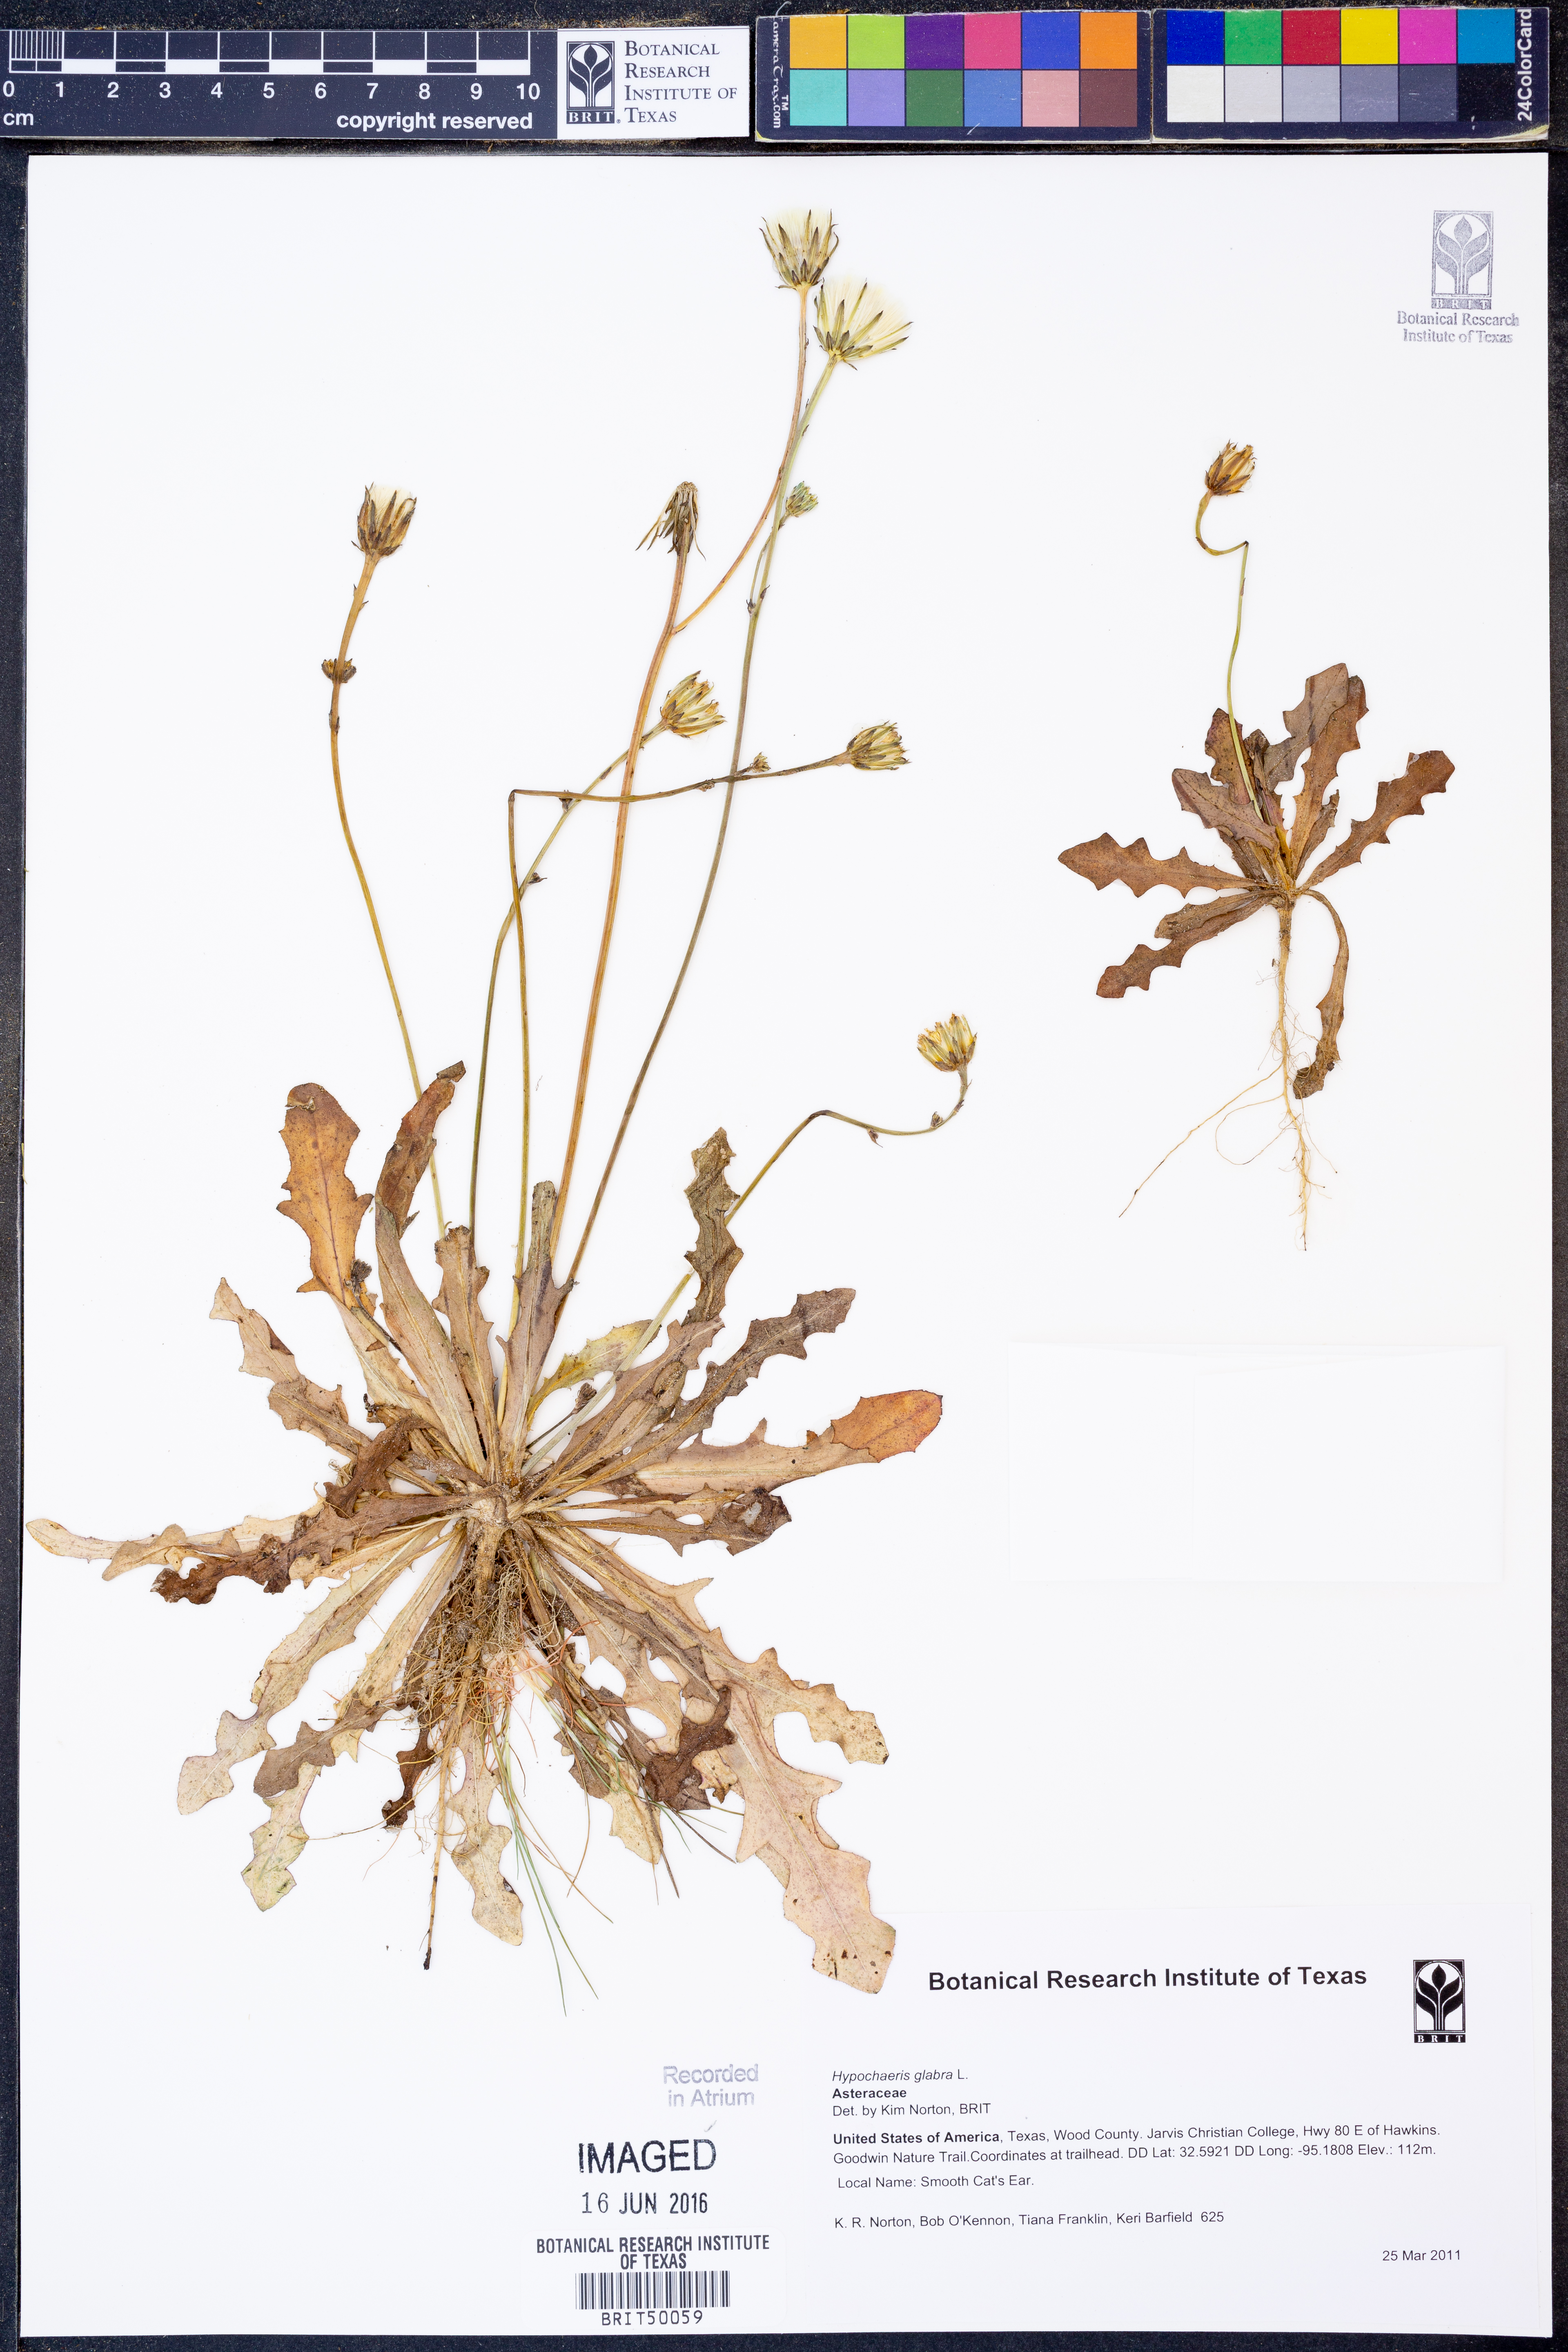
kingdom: Plantae
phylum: Tracheophyta
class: Magnoliopsida
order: Asterales
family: Asteraceae
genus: Hypochaeris
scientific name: Hypochaeris glabra
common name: Smooth catsear
